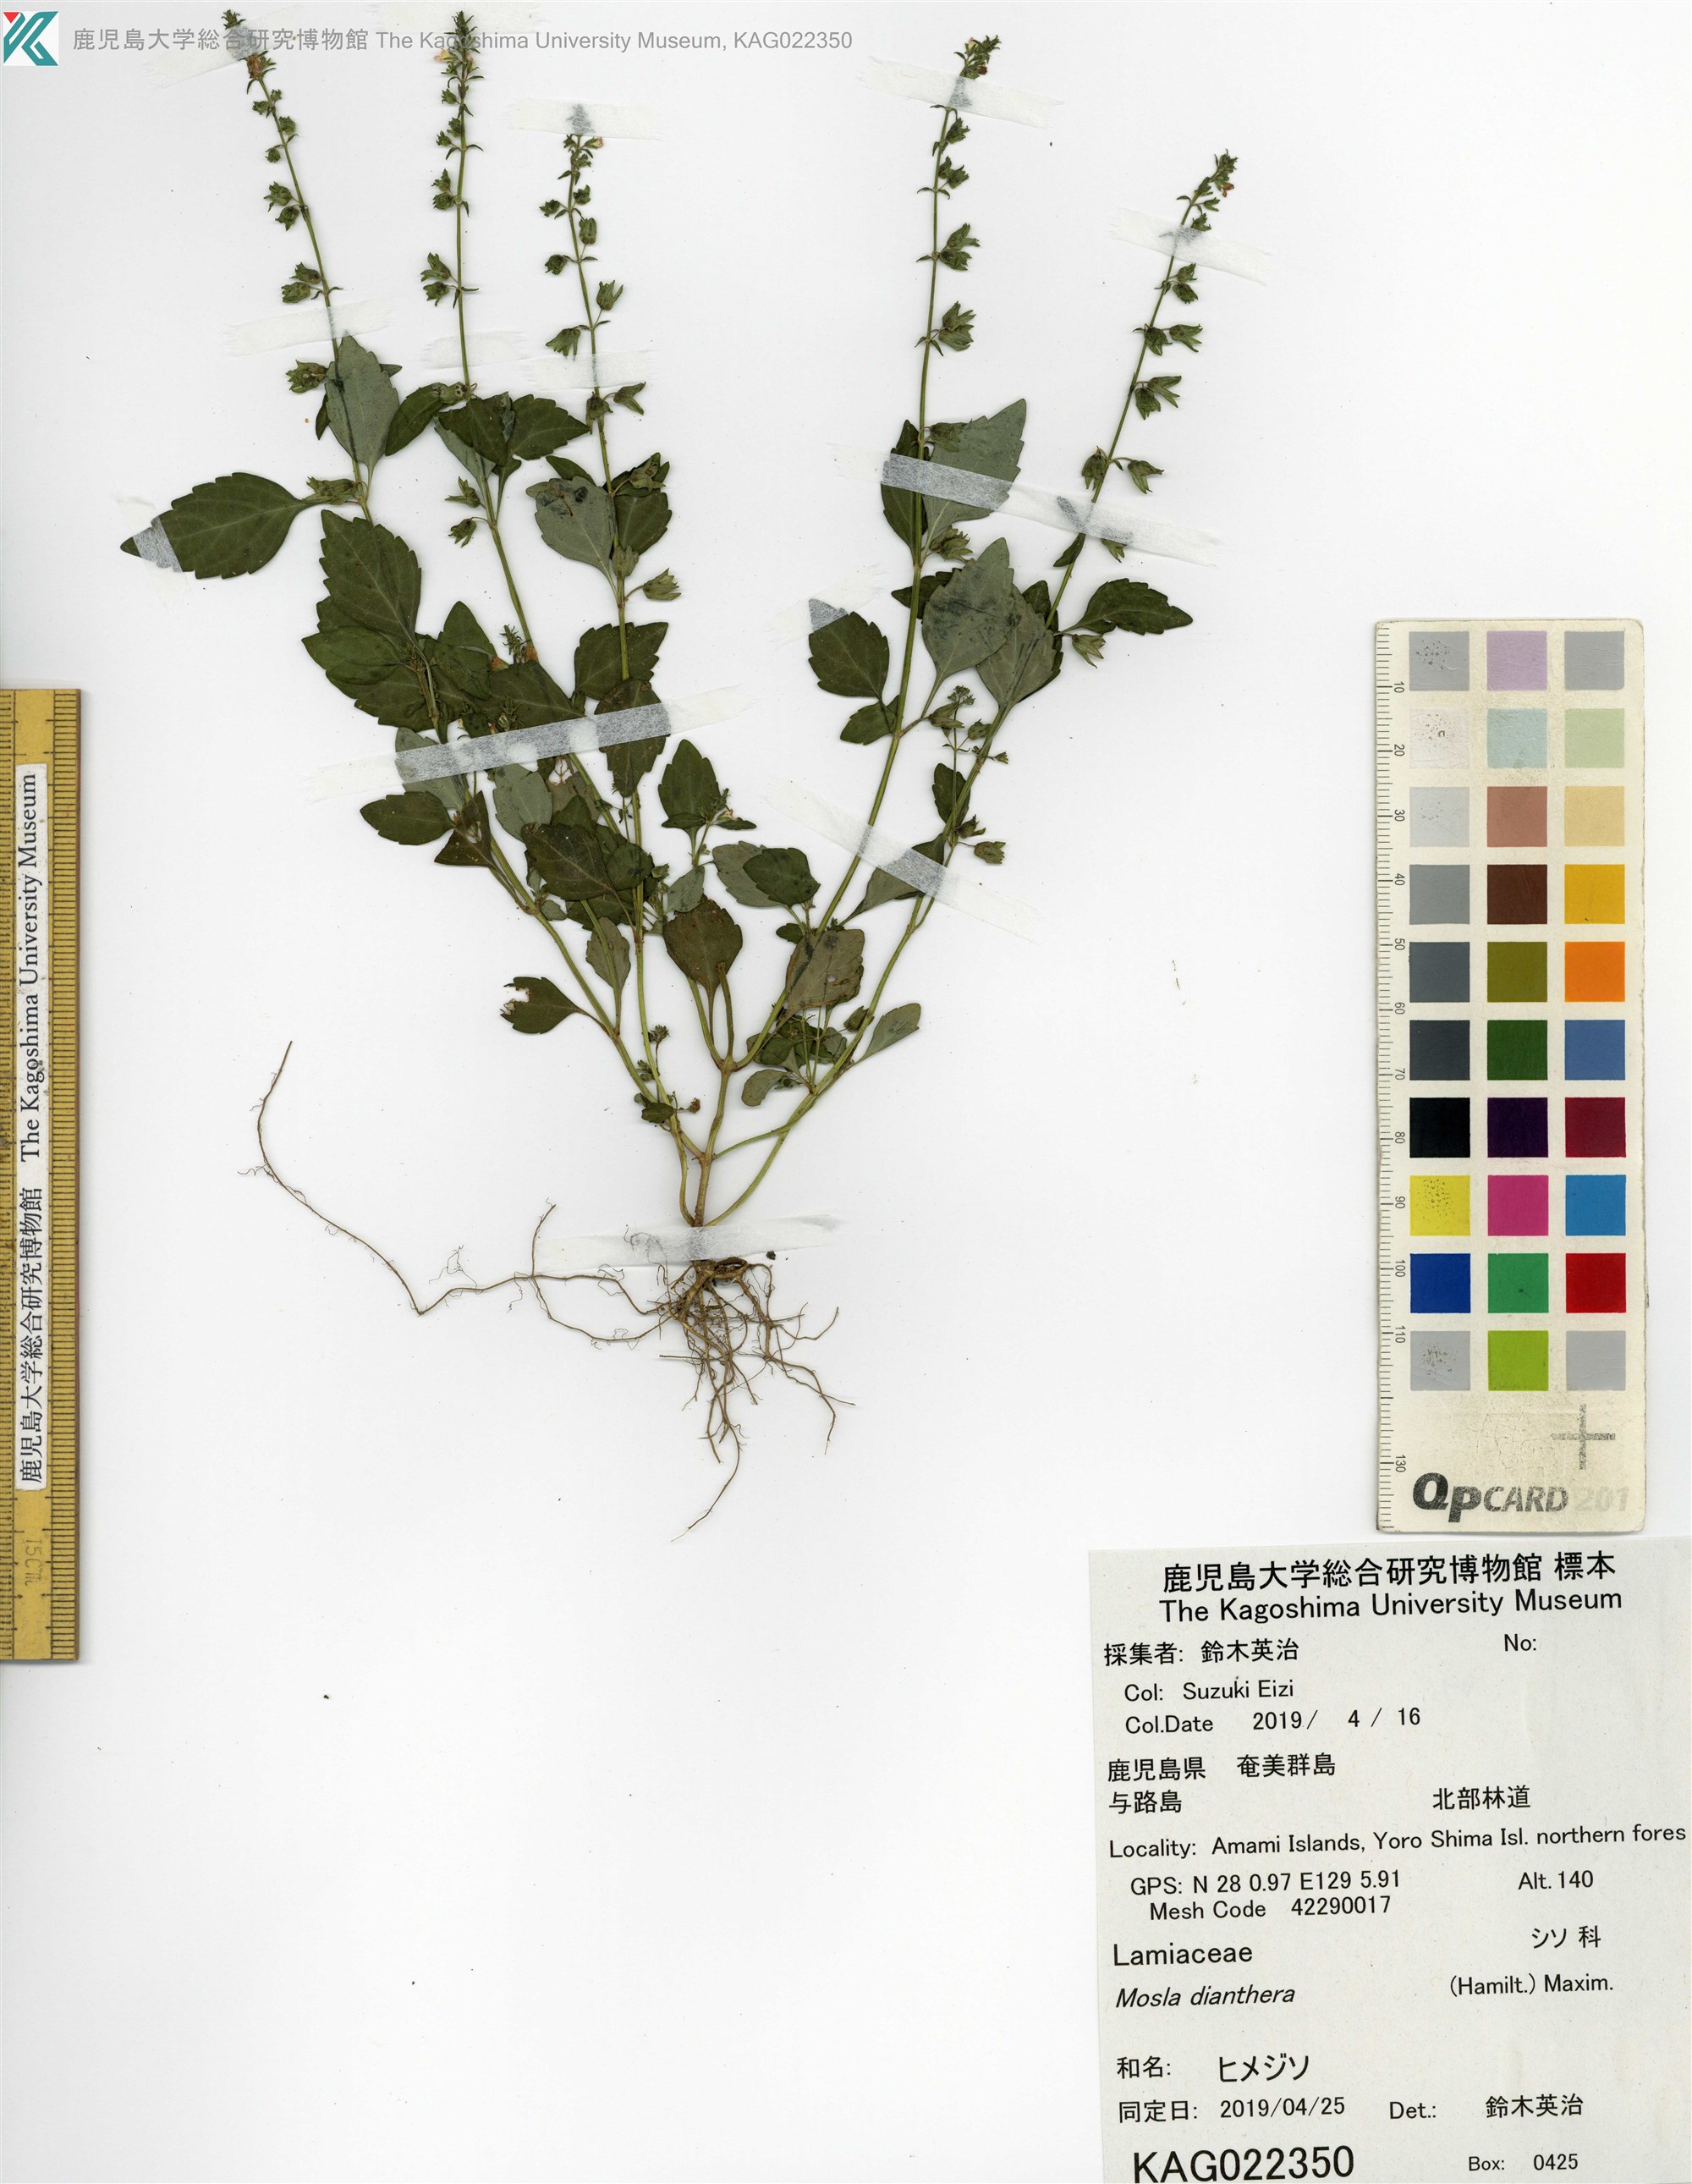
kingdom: Plantae
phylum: Tracheophyta
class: Magnoliopsida
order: Lamiales
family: Lamiaceae
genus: Mosla
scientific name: Mosla dianthera
